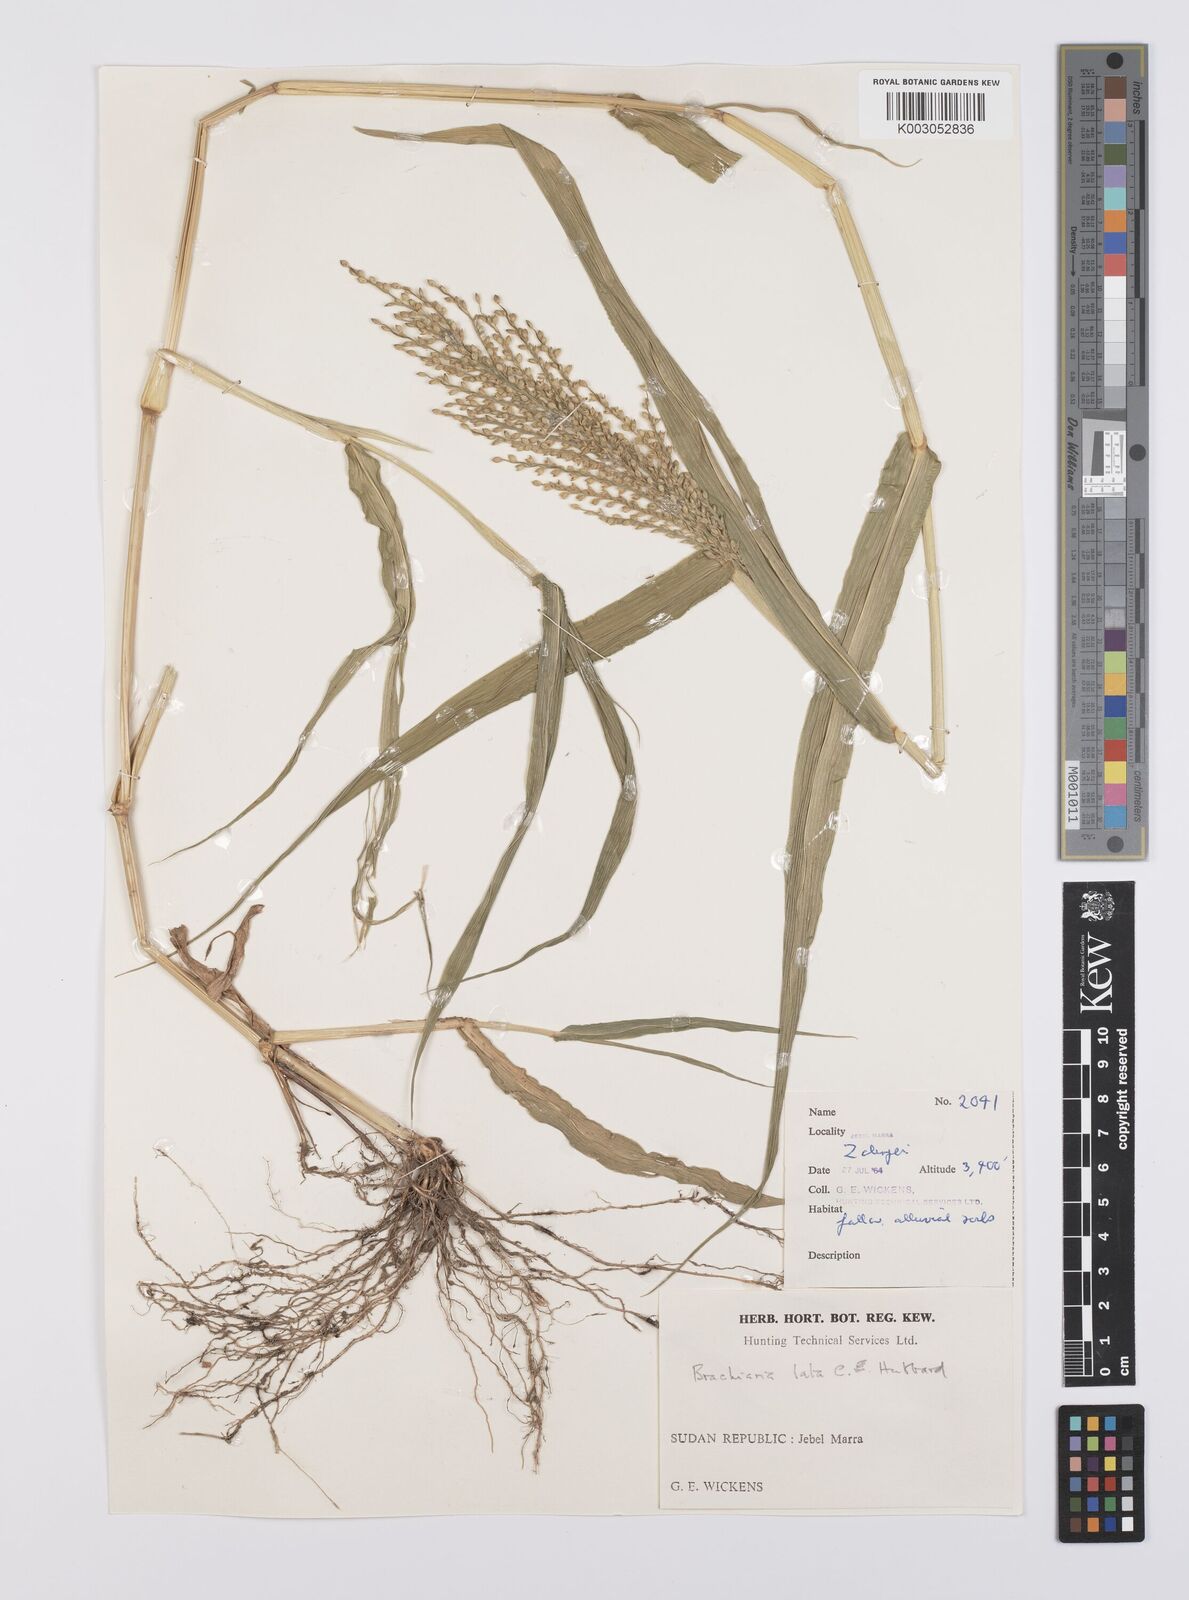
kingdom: Plantae
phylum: Tracheophyta
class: Liliopsida
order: Poales
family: Poaceae
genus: Urochloa
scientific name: Urochloa lata
